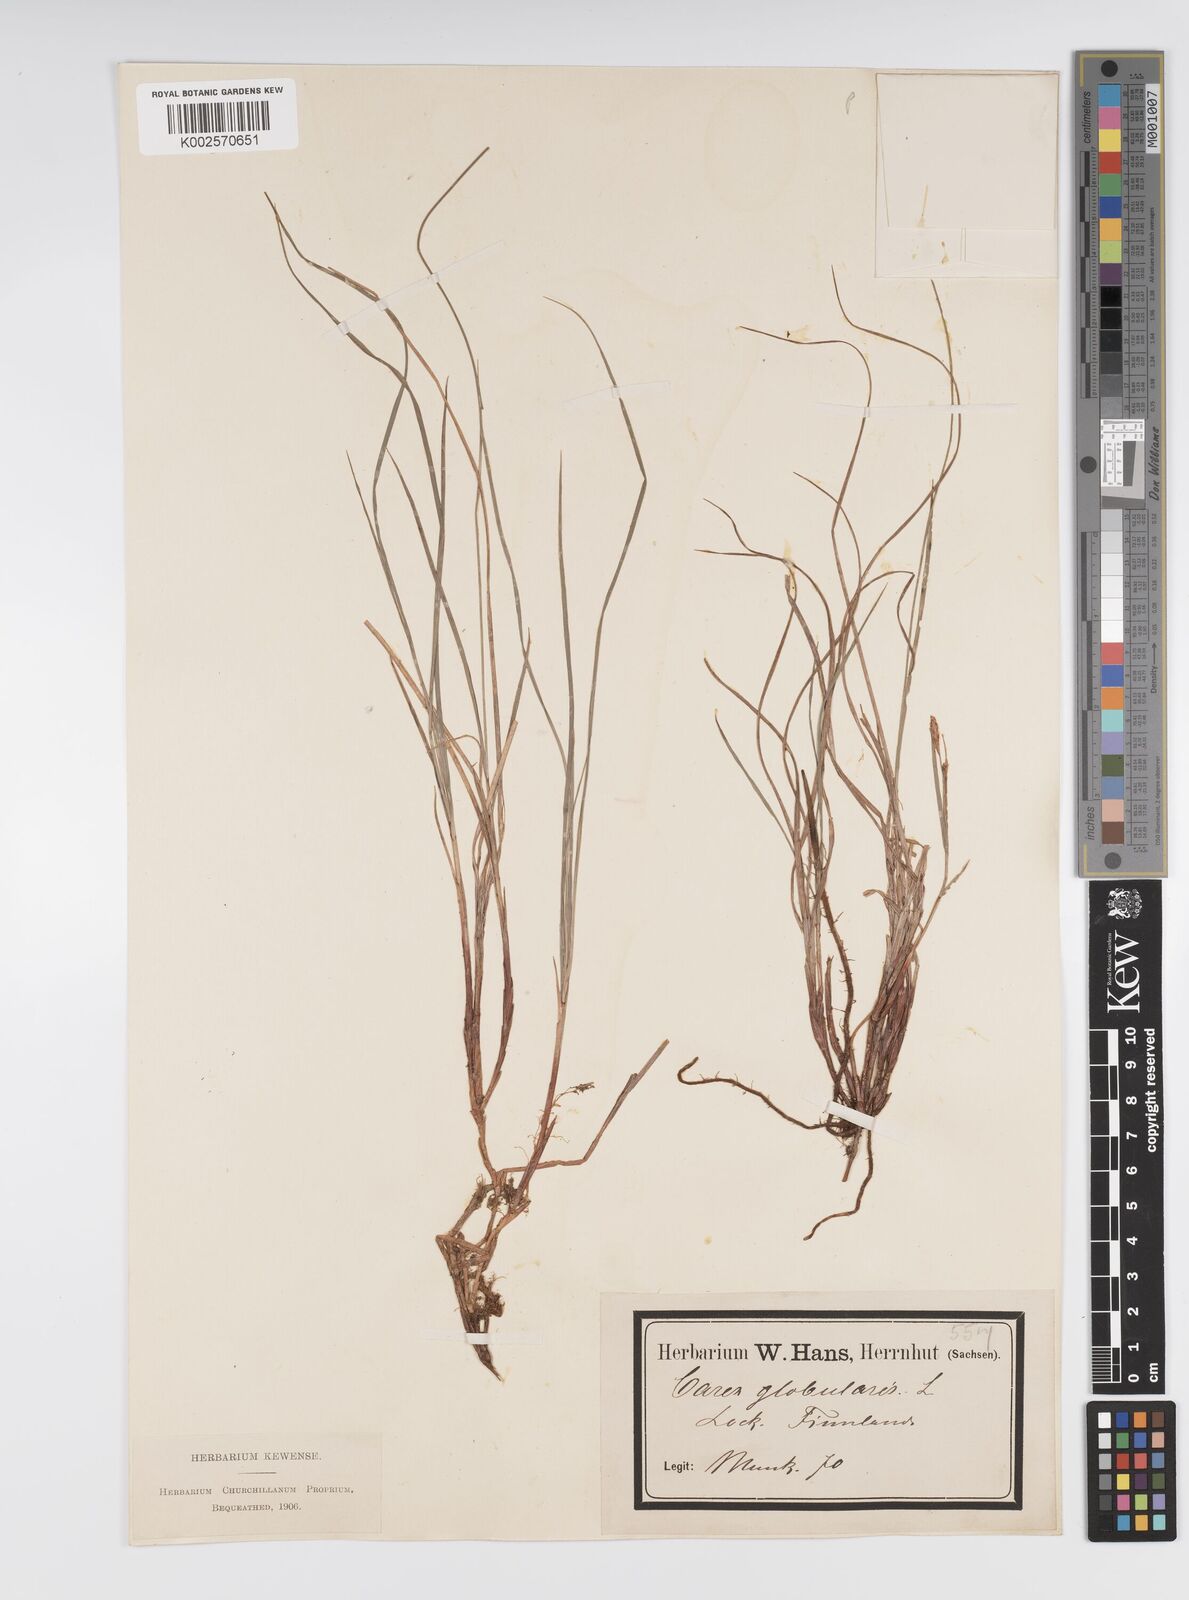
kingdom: Plantae
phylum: Tracheophyta
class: Liliopsida
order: Poales
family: Cyperaceae
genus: Carex
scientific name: Carex globularis
